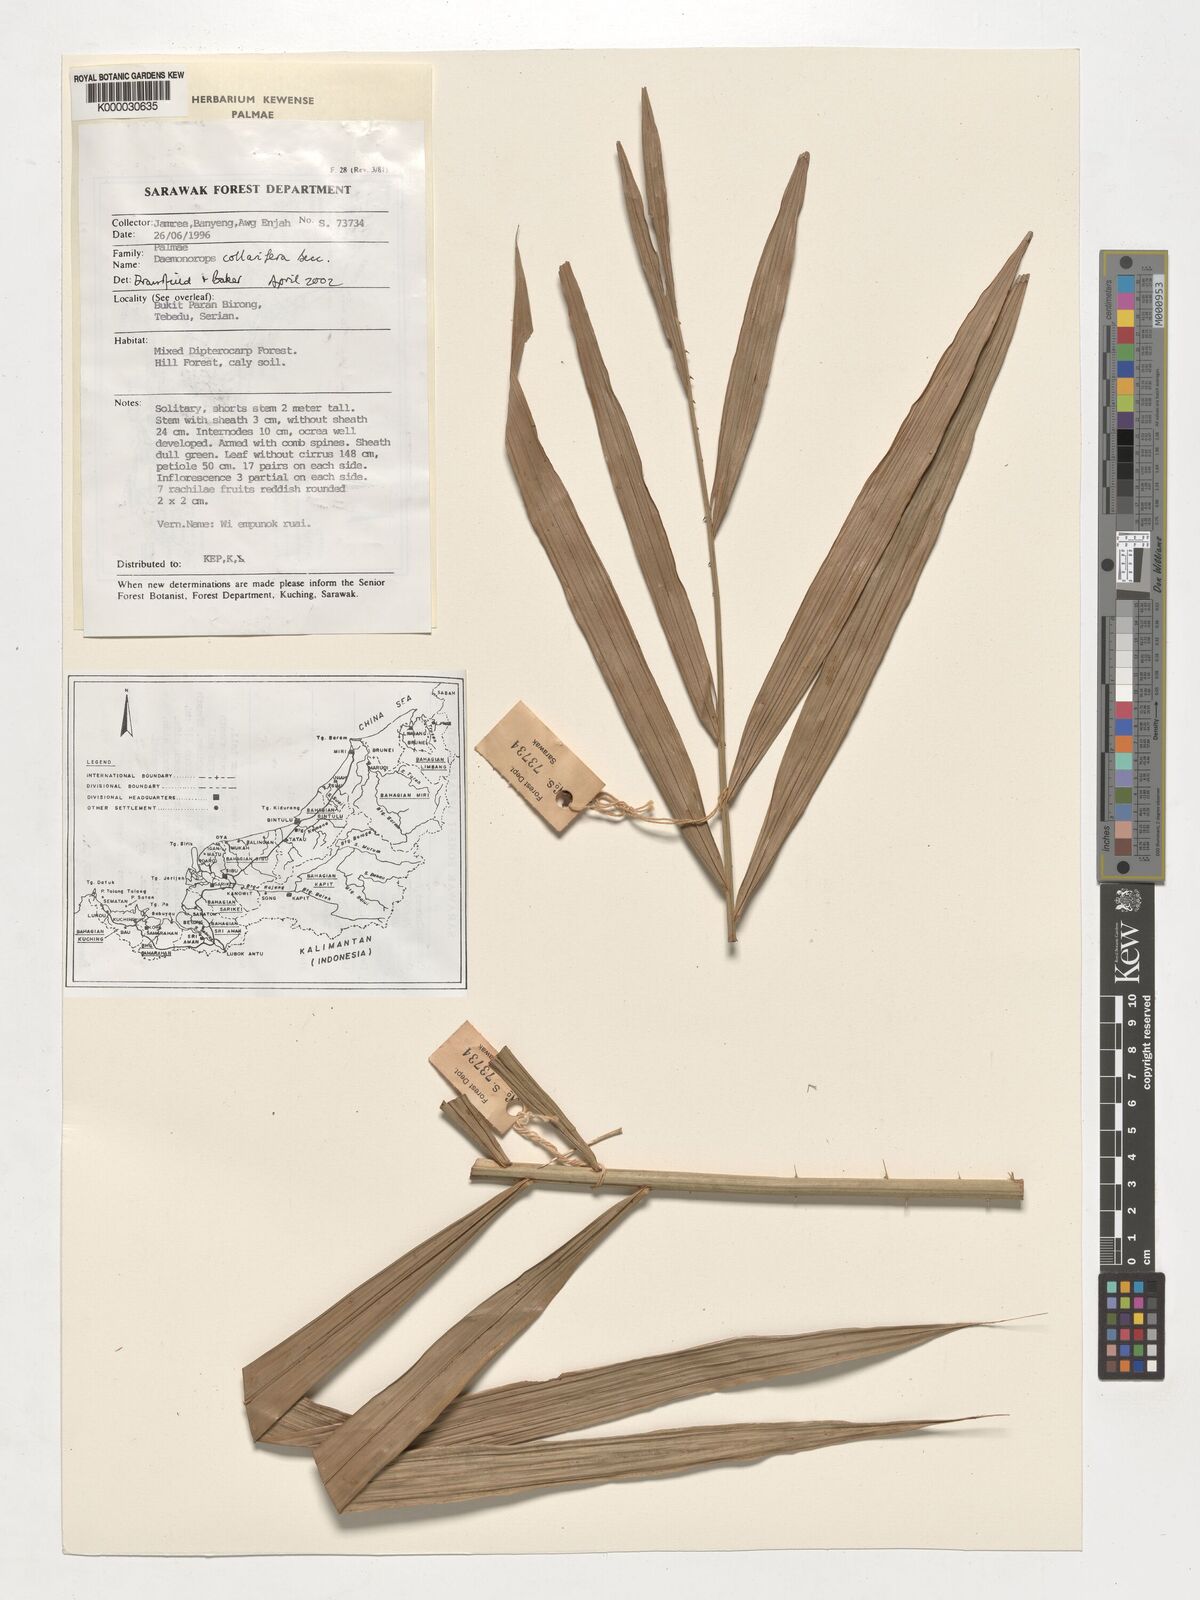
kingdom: Plantae
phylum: Tracheophyta
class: Liliopsida
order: Arecales
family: Arecaceae
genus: Calamus
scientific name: Calamus geniculatus
